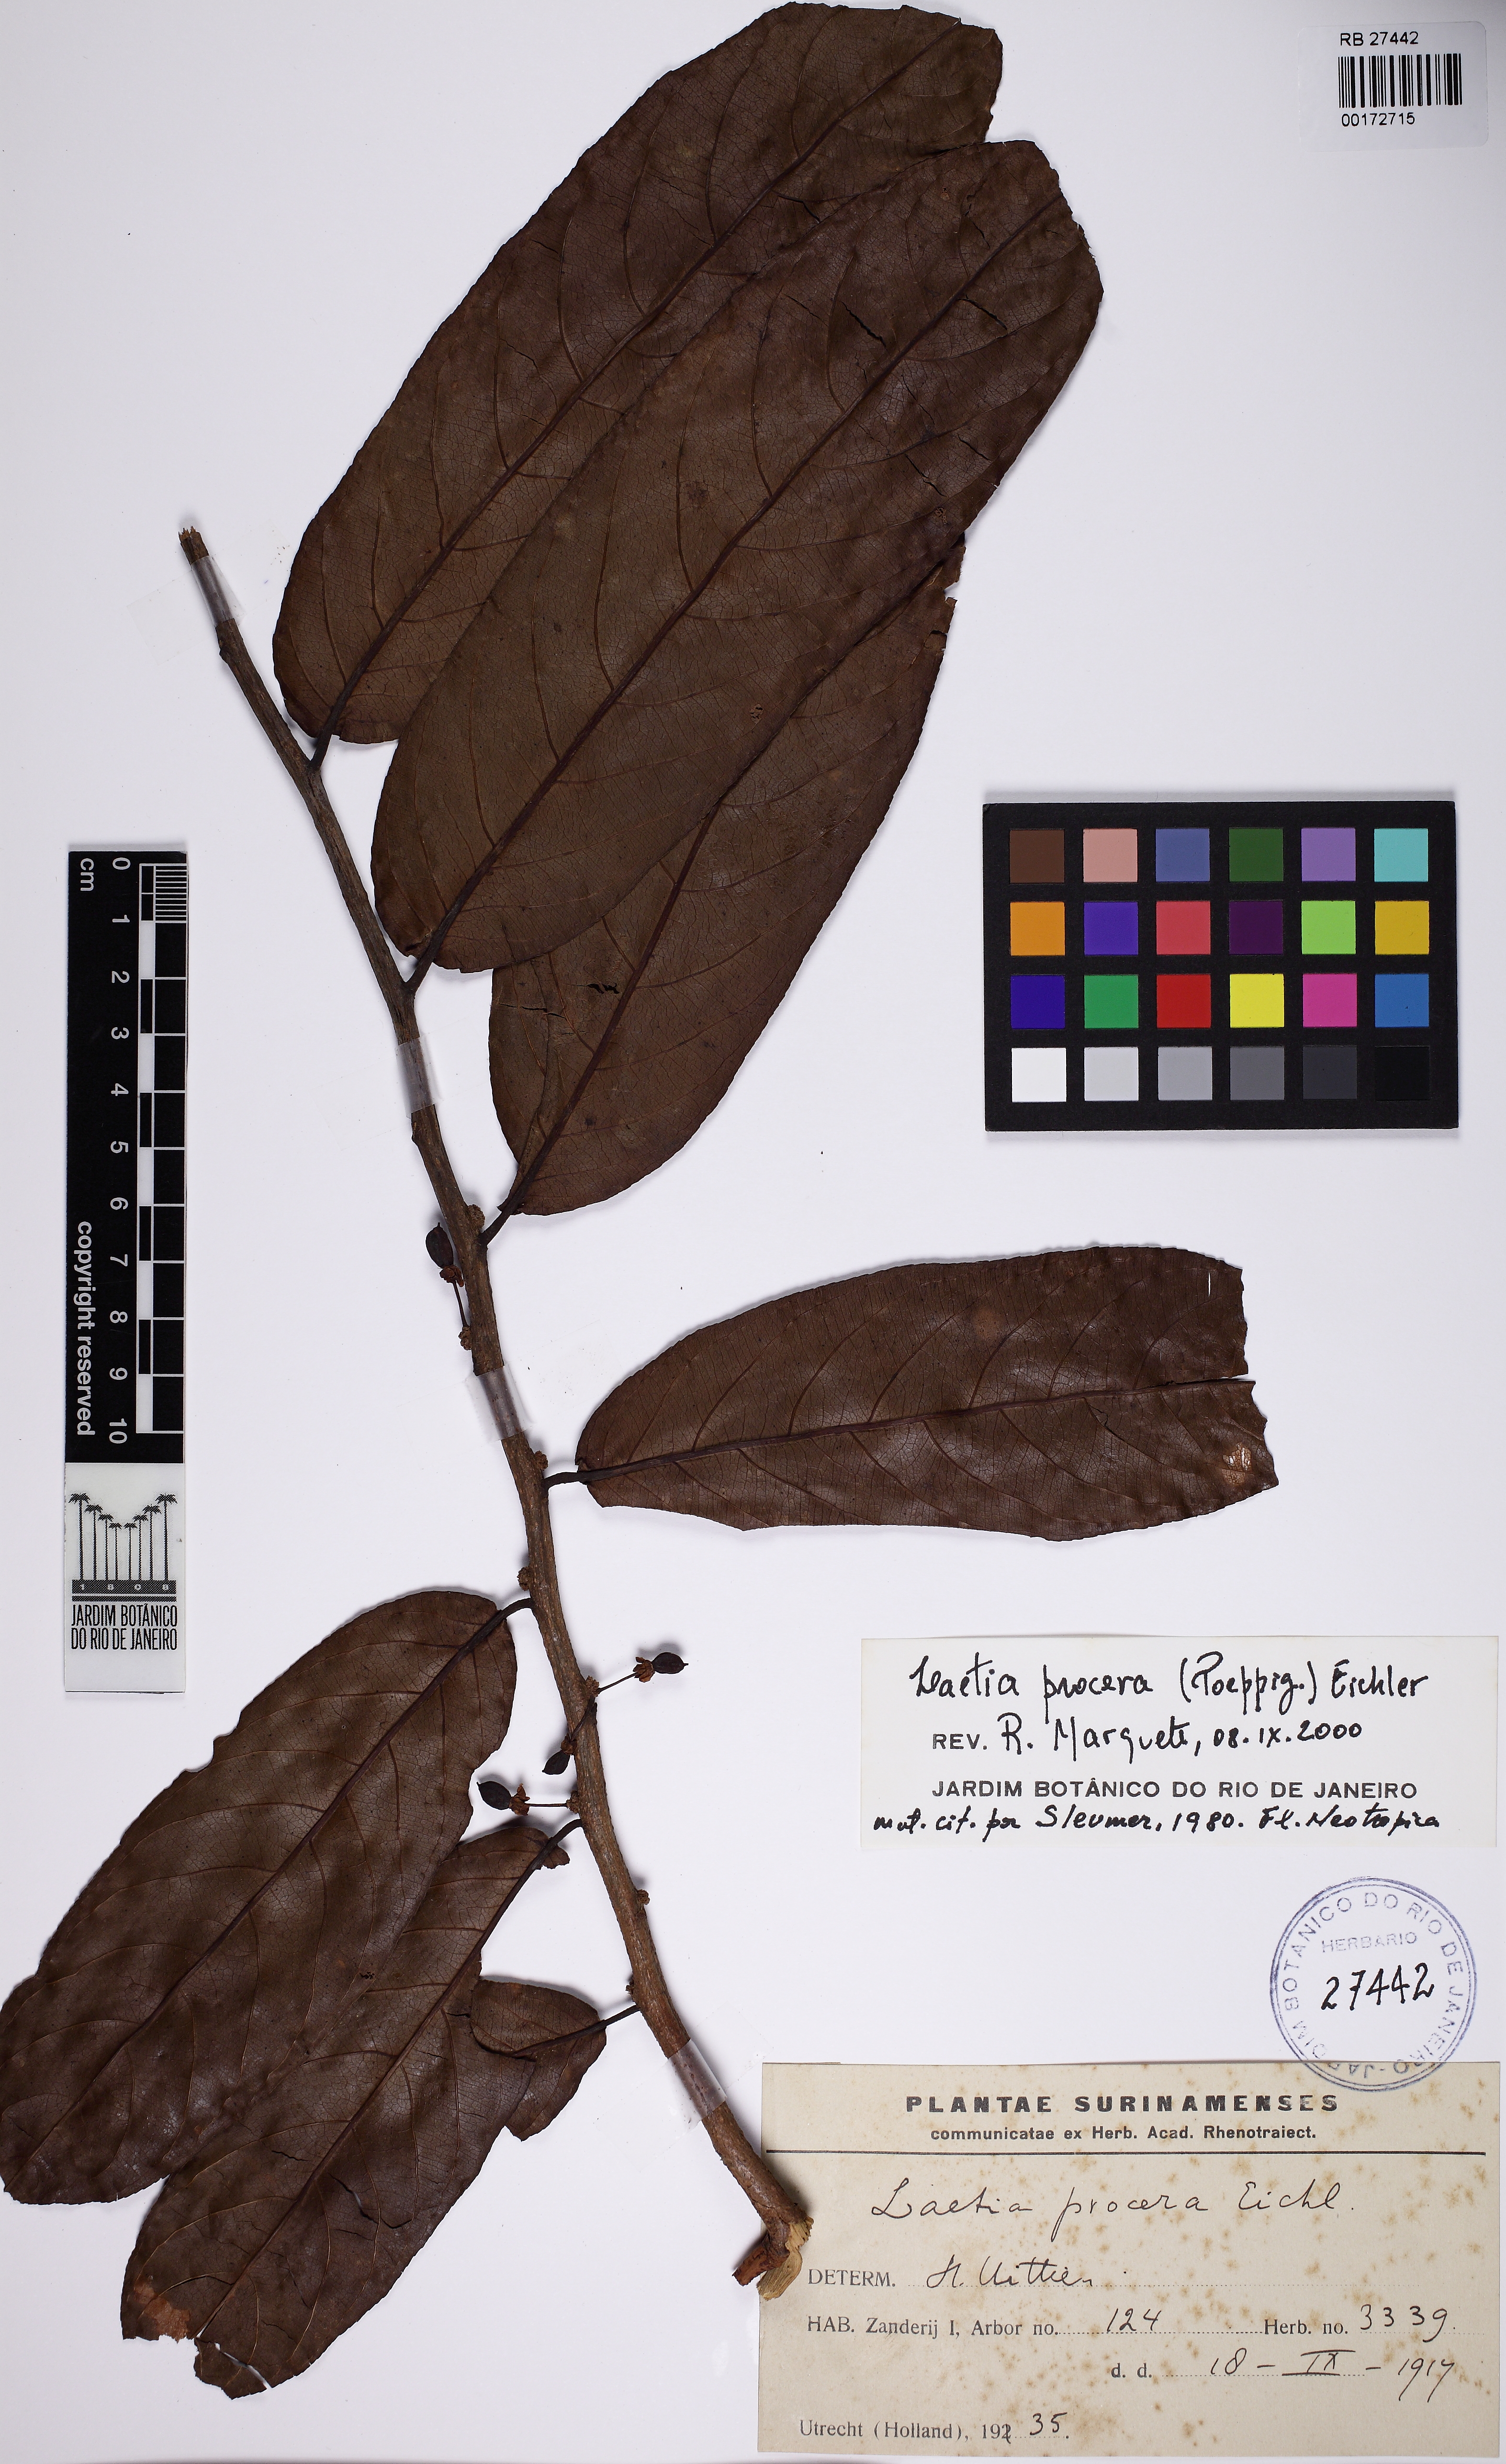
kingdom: Plantae
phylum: Tracheophyta
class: Magnoliopsida
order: Malpighiales
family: Salicaceae
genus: Casearia
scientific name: Casearia bicolor
